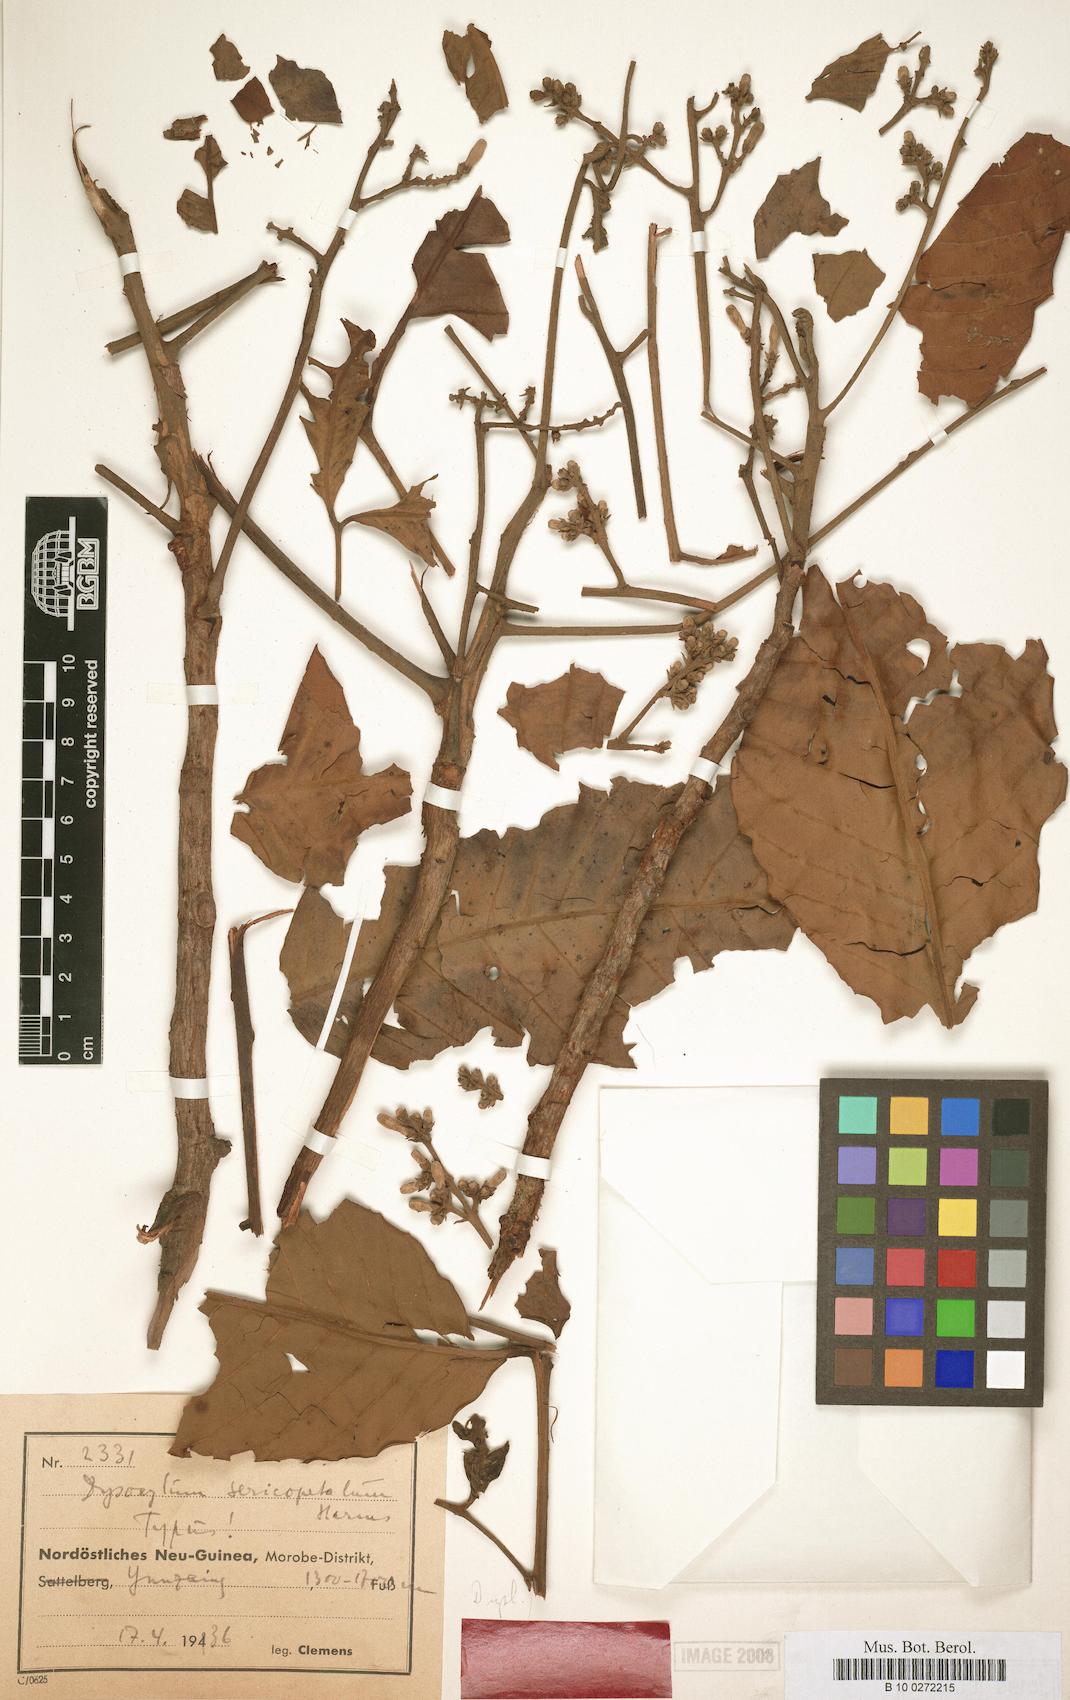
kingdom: Plantae
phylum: Tracheophyta
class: Magnoliopsida
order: Sapindales
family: Meliaceae
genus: Dysoxylum
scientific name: Dysoxylum randianum
